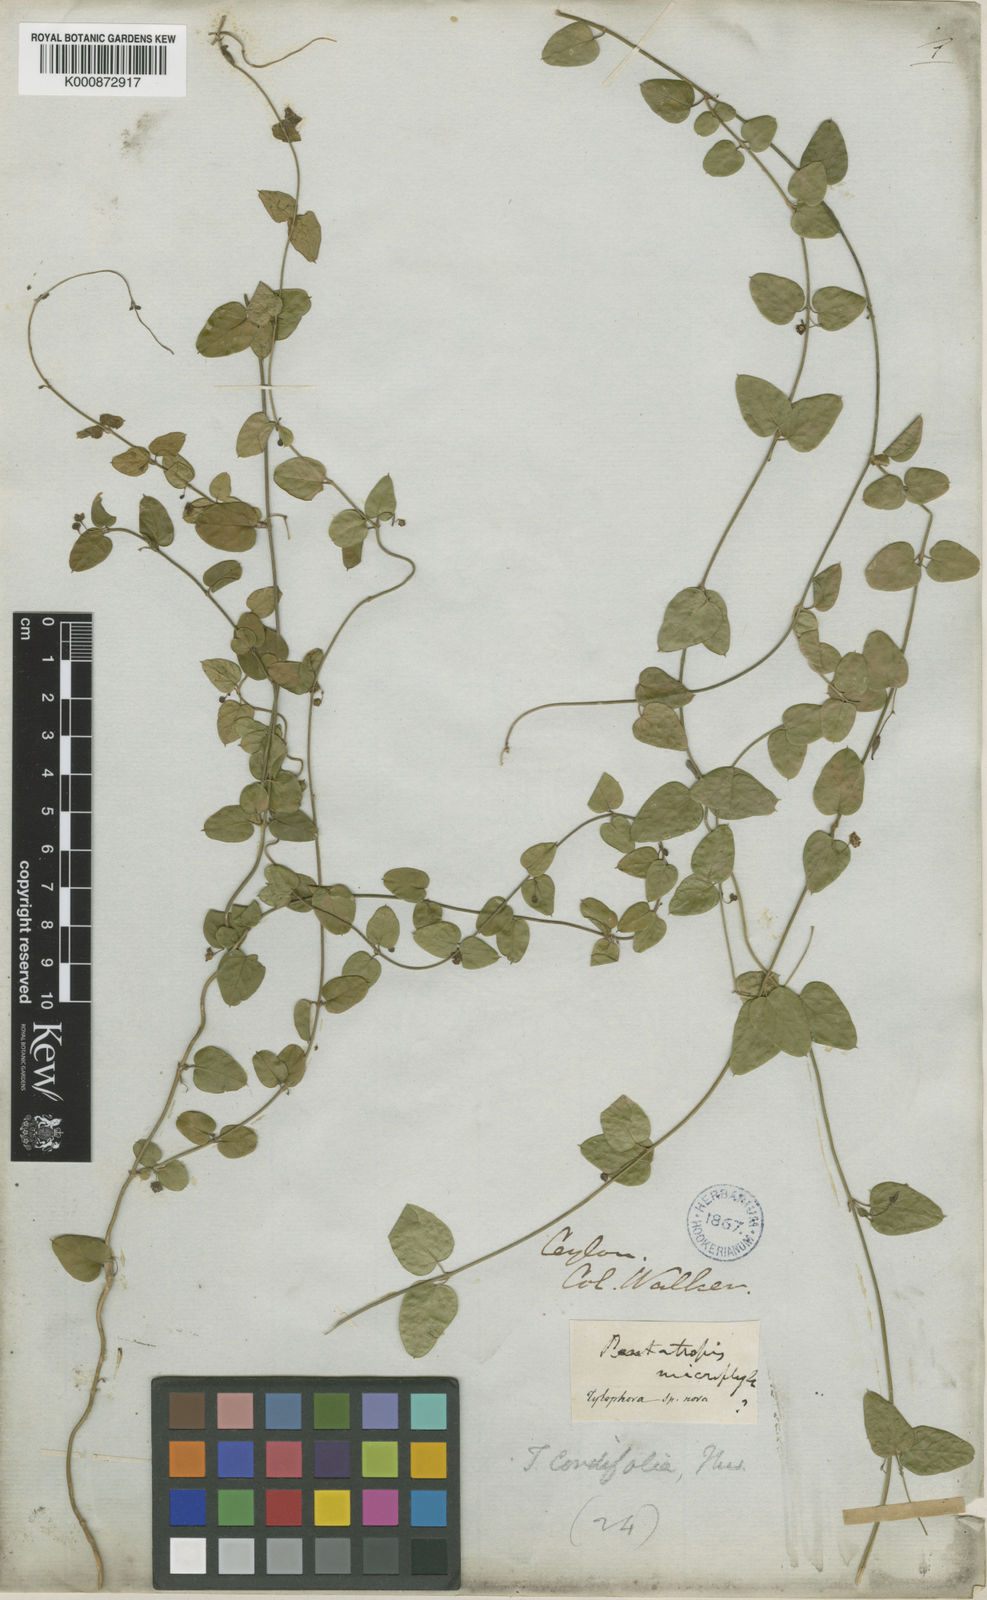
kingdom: Plantae
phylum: Tracheophyta
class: Magnoliopsida
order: Gentianales
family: Apocynaceae
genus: Vincetoxicum
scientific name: Vincetoxicum cordifolium
